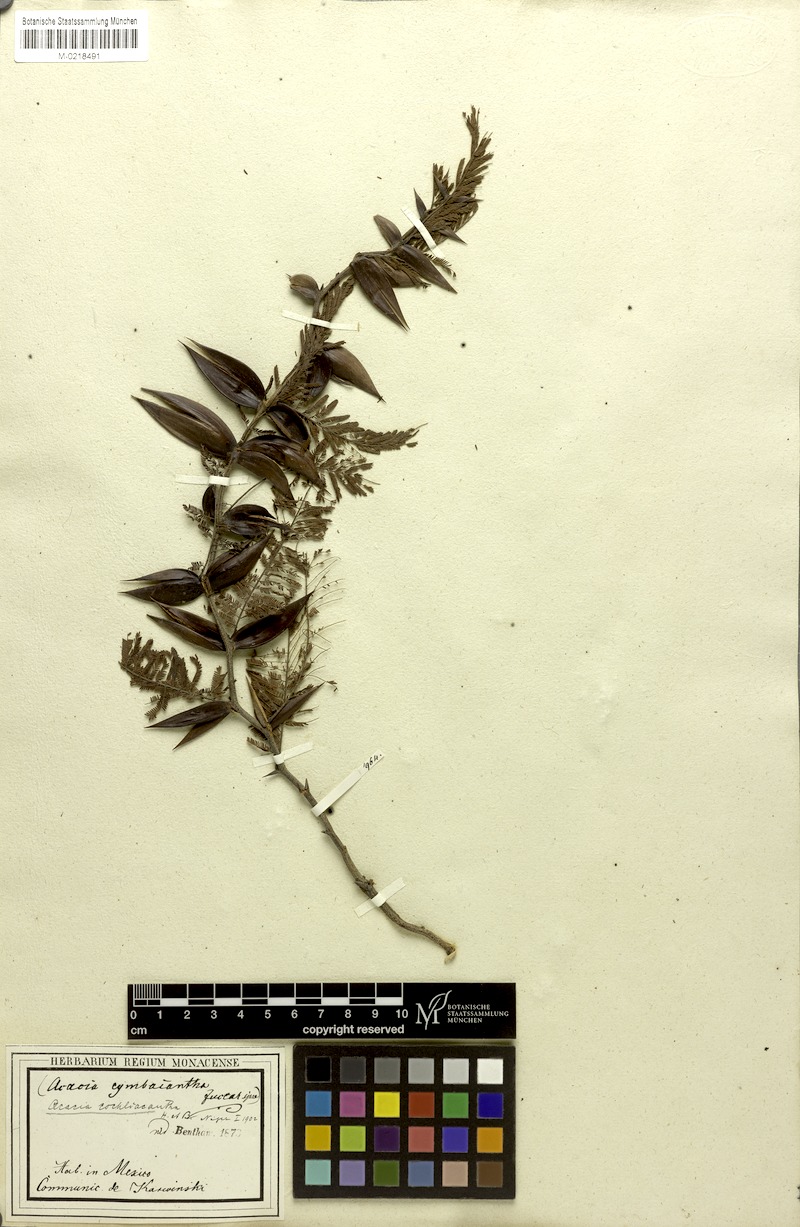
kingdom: Plantae
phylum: Tracheophyta
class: Magnoliopsida
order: Fabales
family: Fabaceae
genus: Vachellia
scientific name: Vachellia campeachiana
